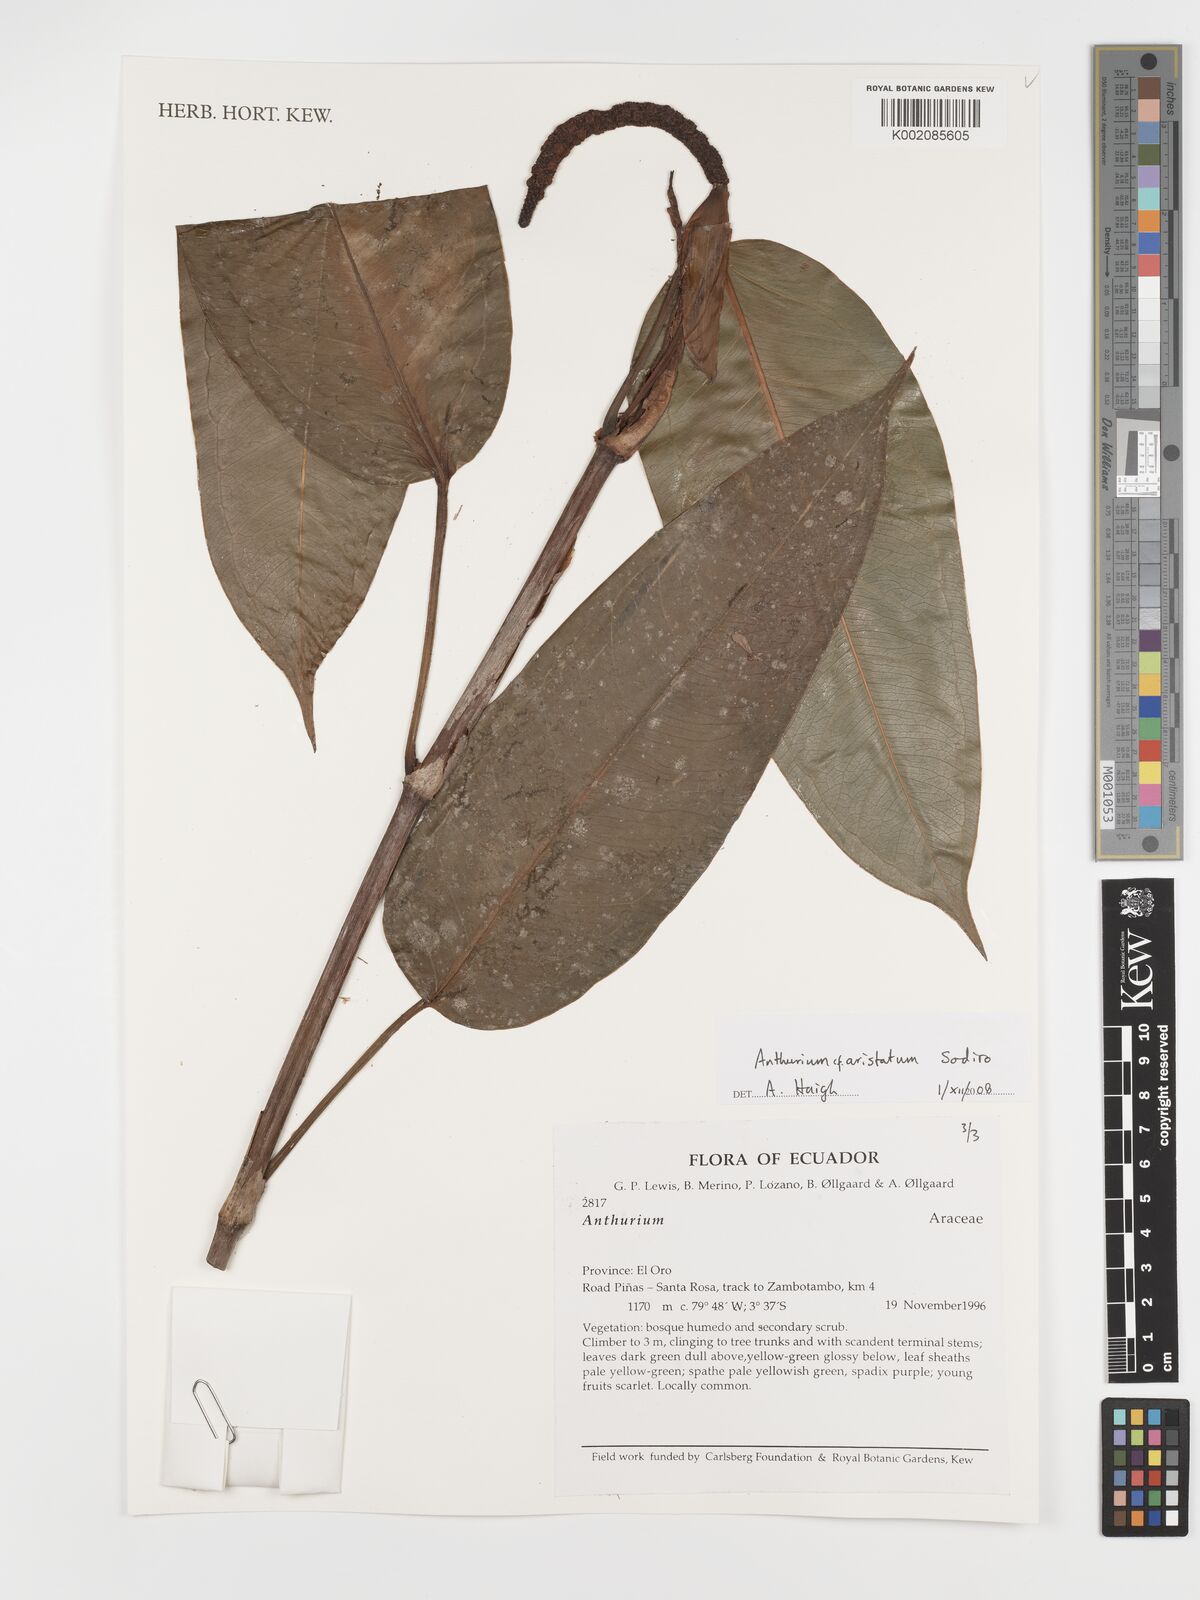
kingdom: Plantae
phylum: Tracheophyta
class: Liliopsida
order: Alismatales
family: Araceae
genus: Anthurium
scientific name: Anthurium aristatum
